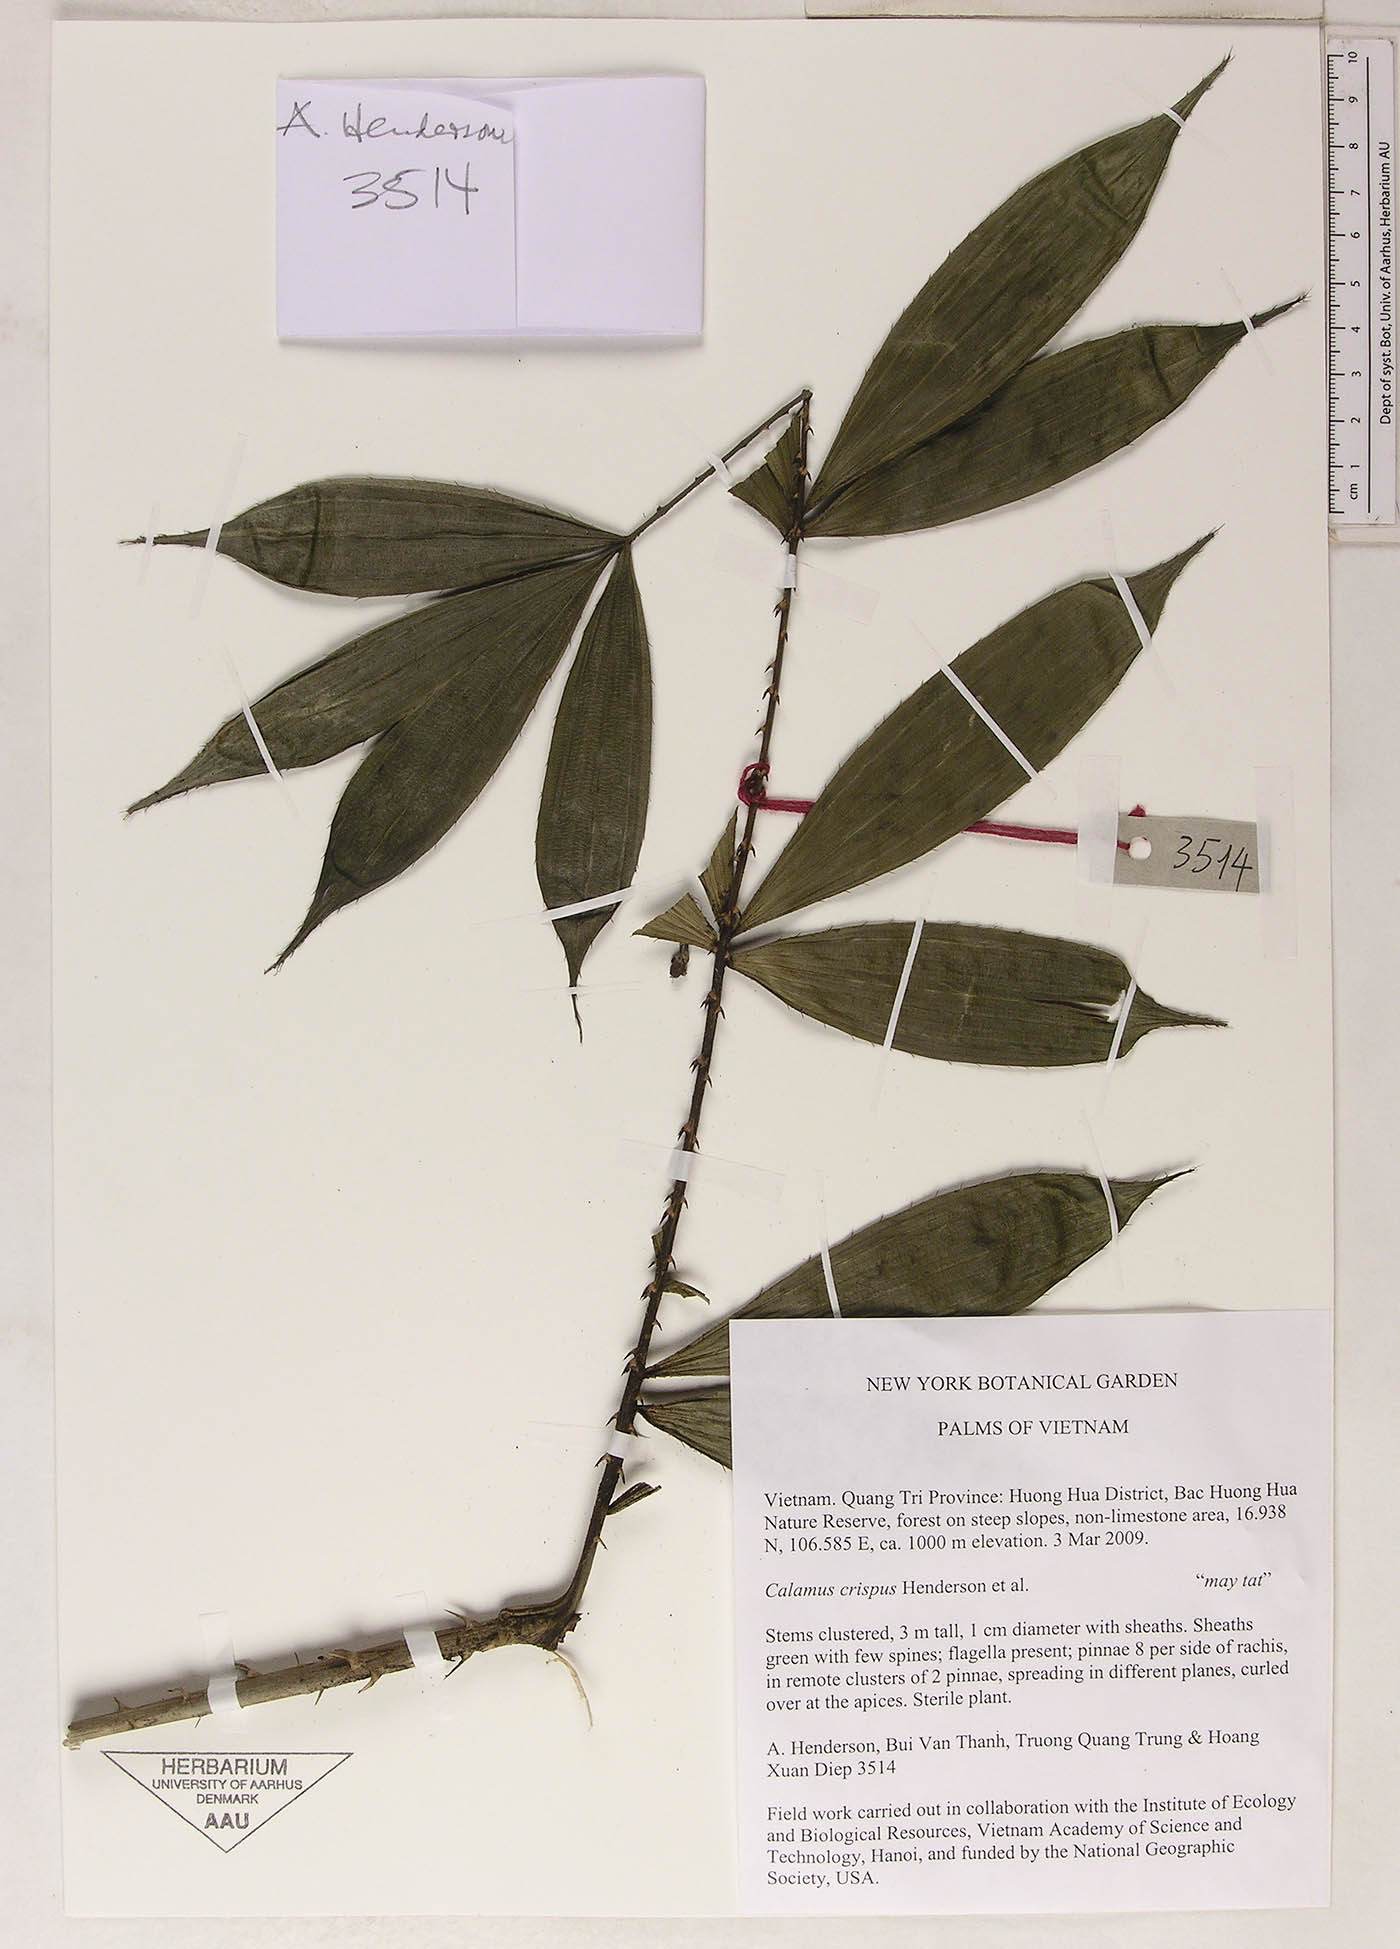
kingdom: Plantae
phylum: Tracheophyta
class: Liliopsida
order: Arecales
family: Arecaceae
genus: Calamus
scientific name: Calamus tetradactylus
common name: White rattan
